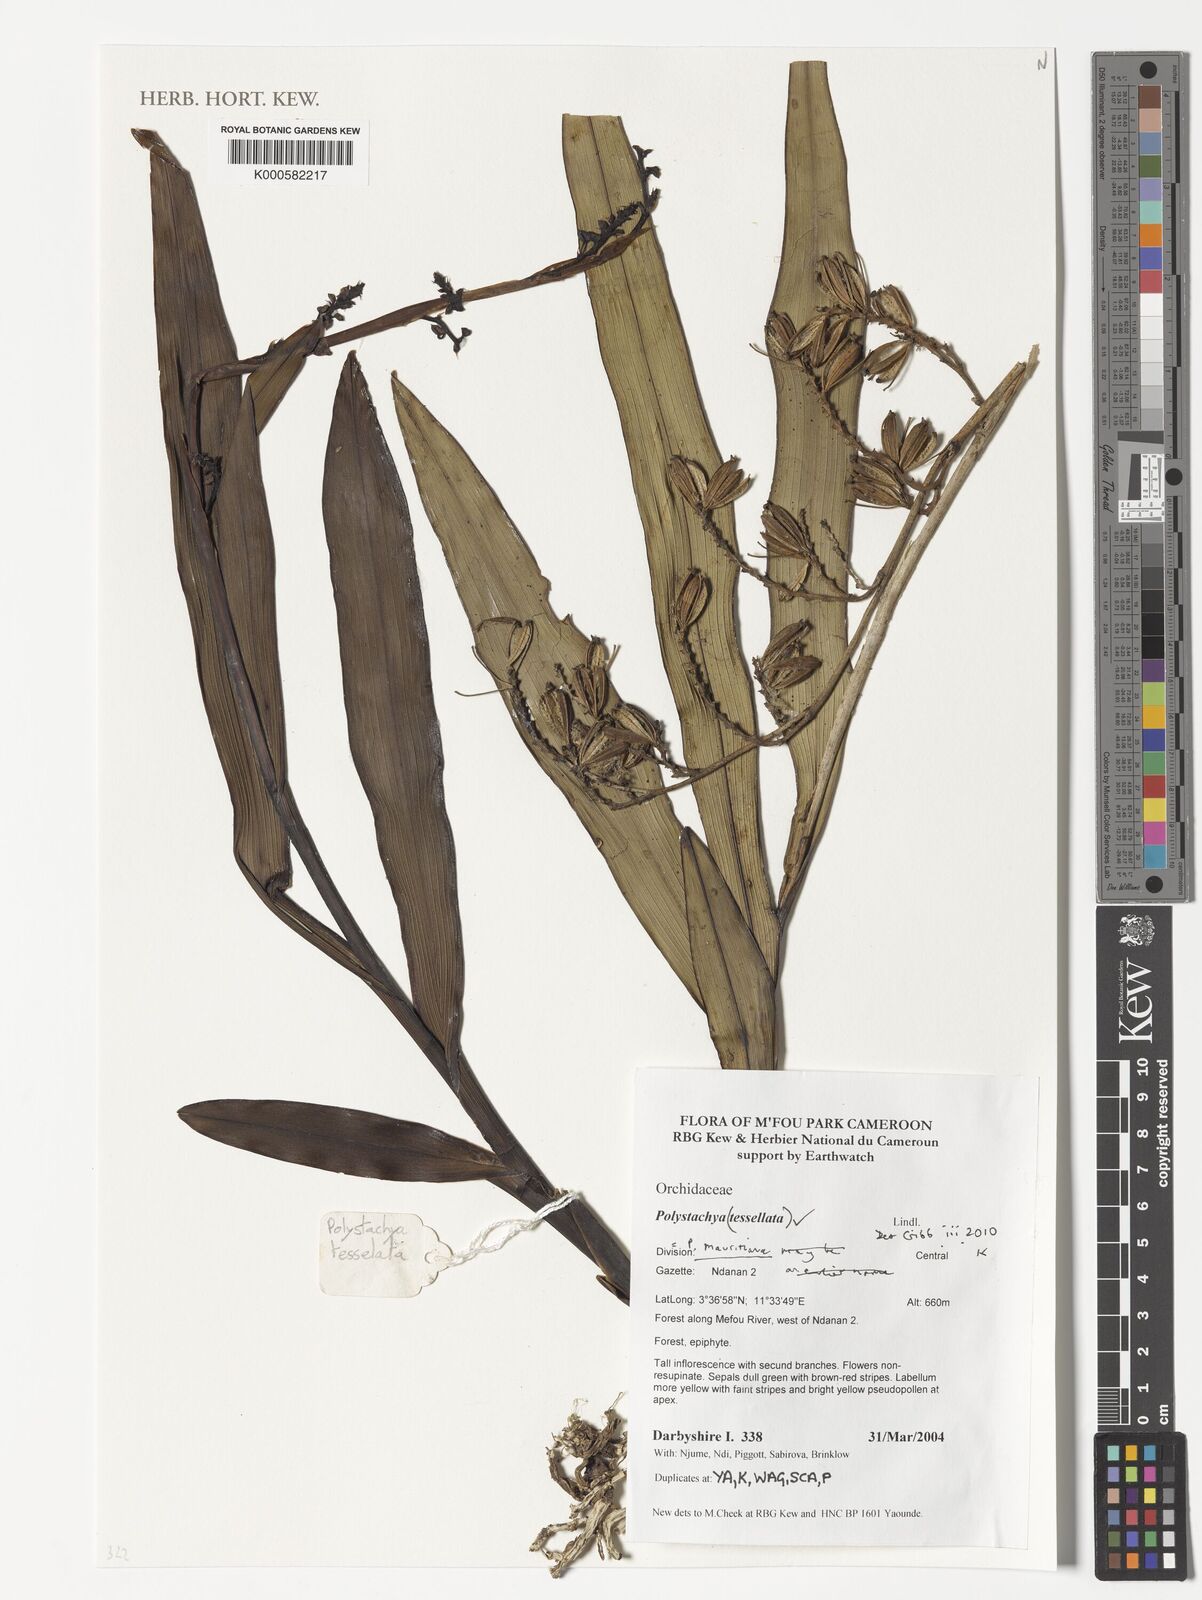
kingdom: Plantae
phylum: Tracheophyta
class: Liliopsida
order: Asparagales
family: Orchidaceae
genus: Polystachya
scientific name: Polystachya concreta
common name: Greater yellowspike orchid
